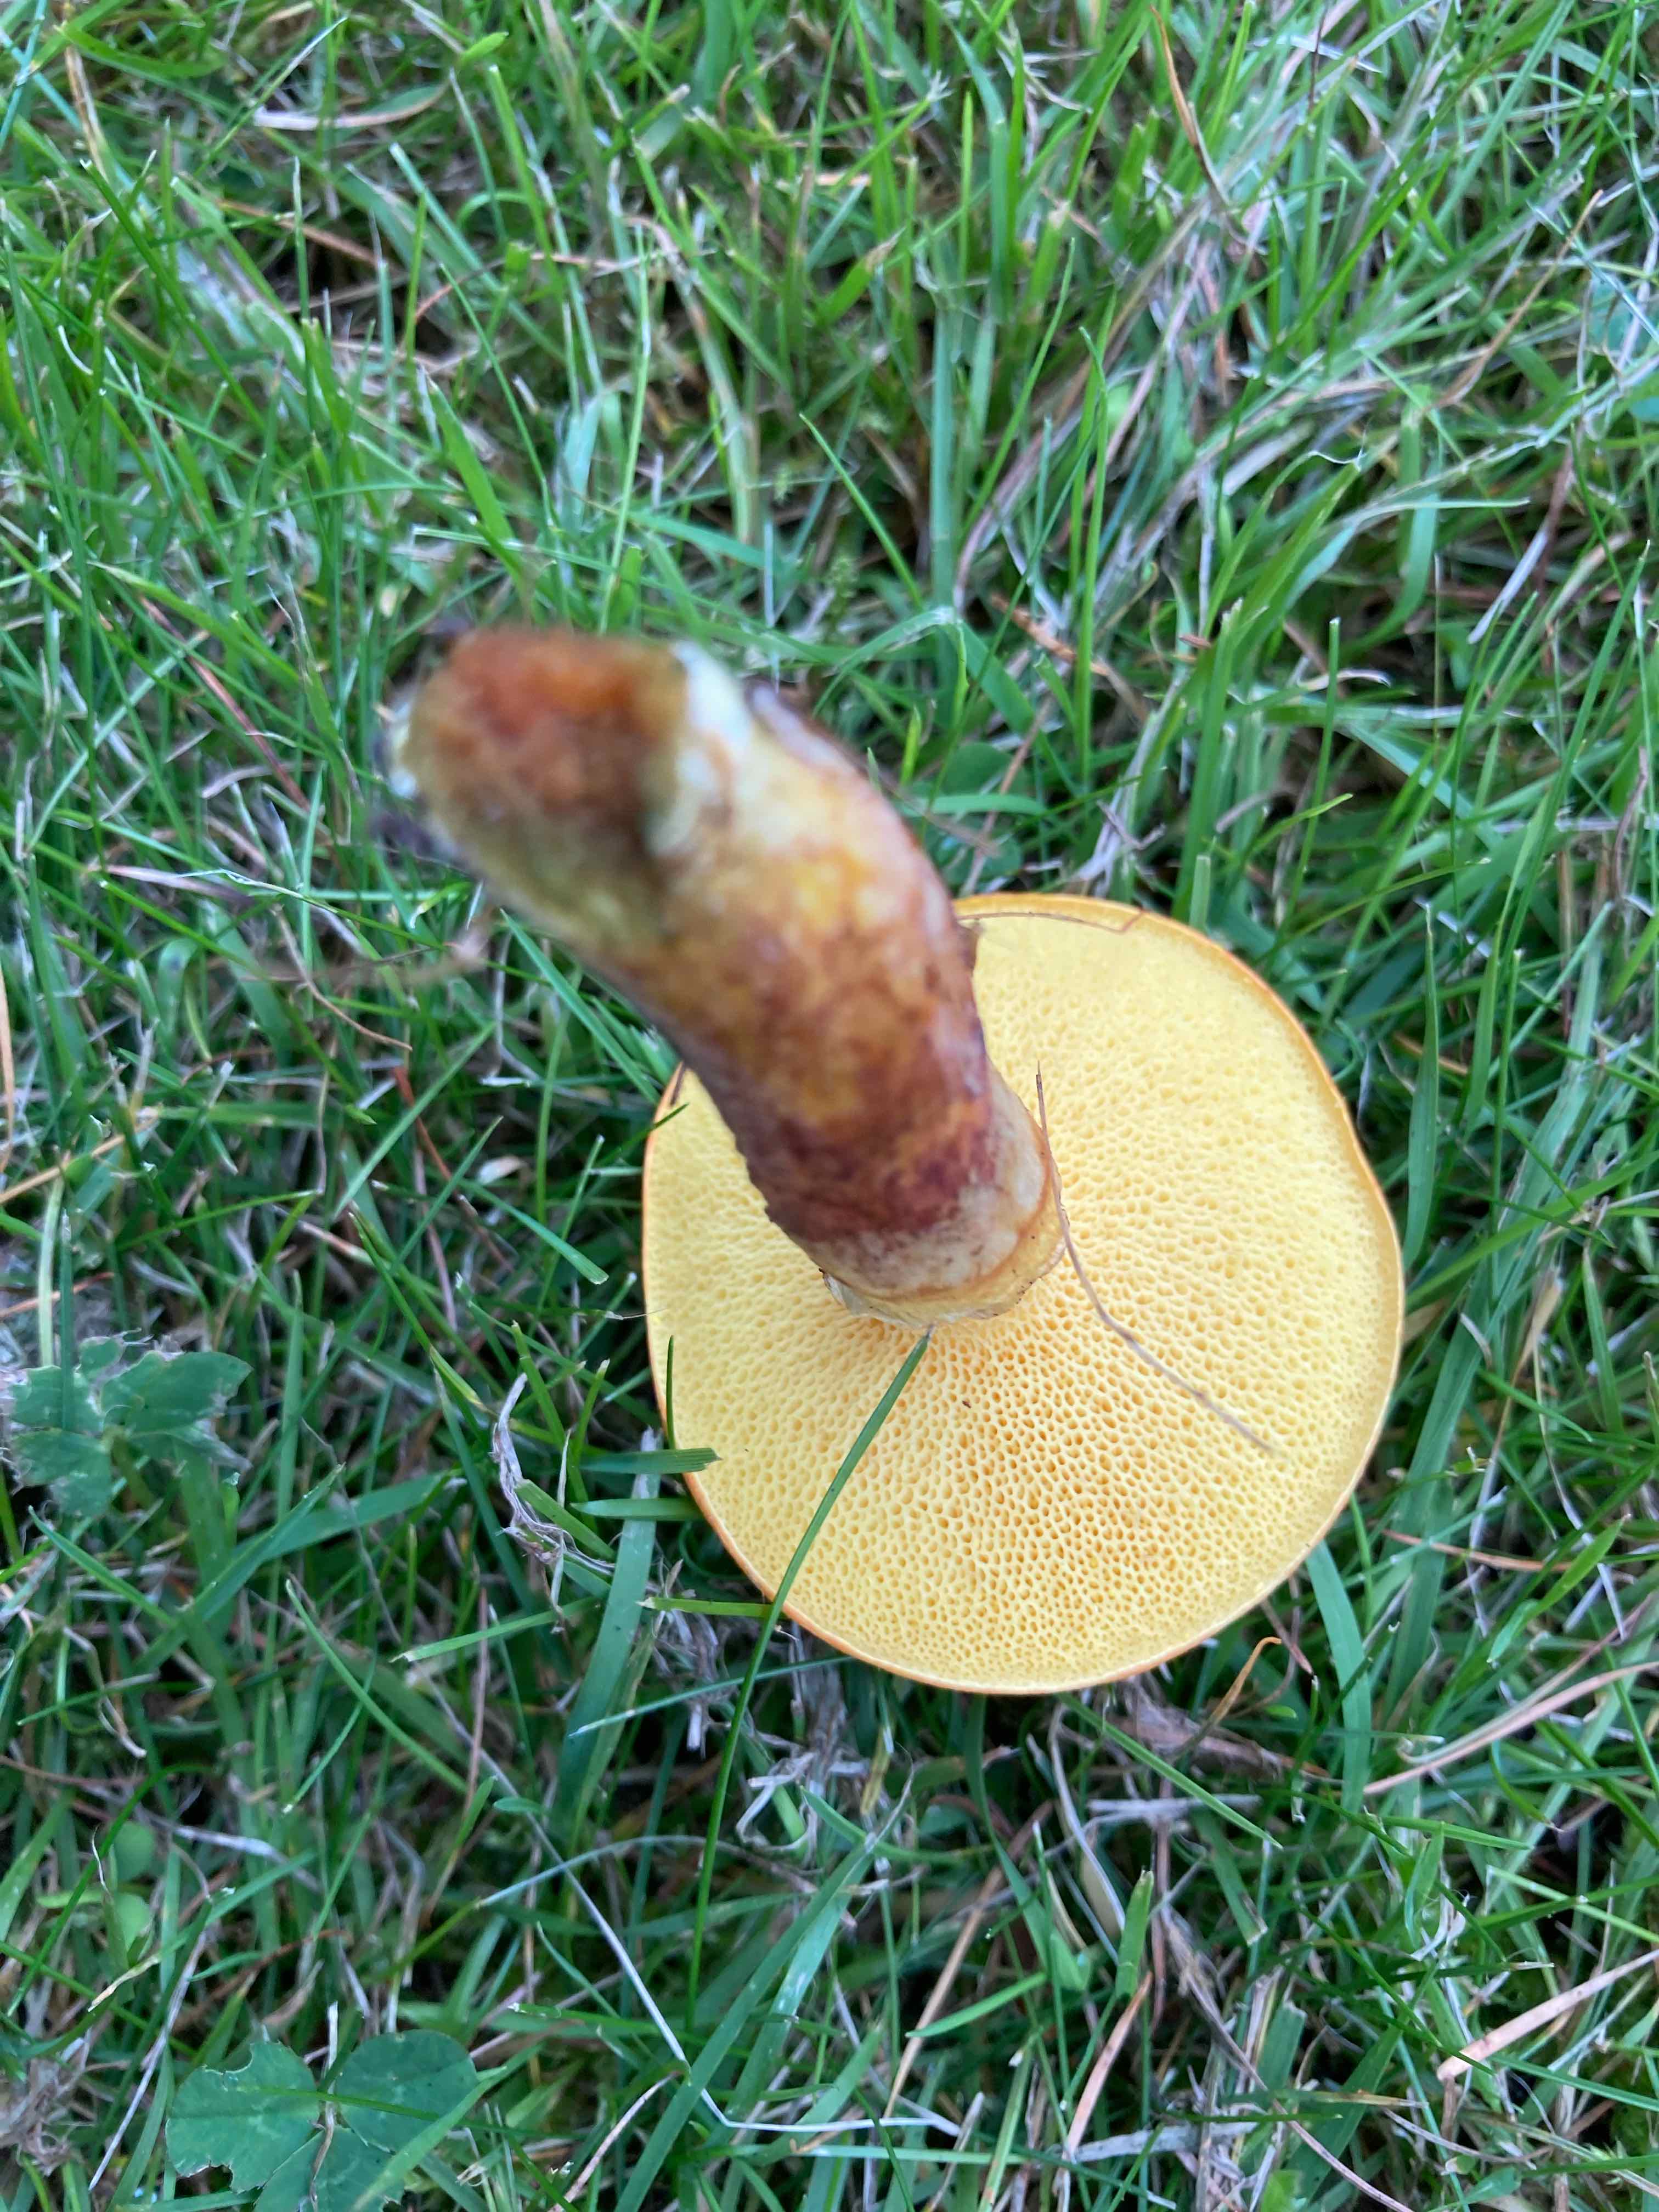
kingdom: Fungi
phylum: Basidiomycota
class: Agaricomycetes
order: Boletales
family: Suillaceae
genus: Suillus
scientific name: Suillus grevillei
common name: lærke-slimrørhat
